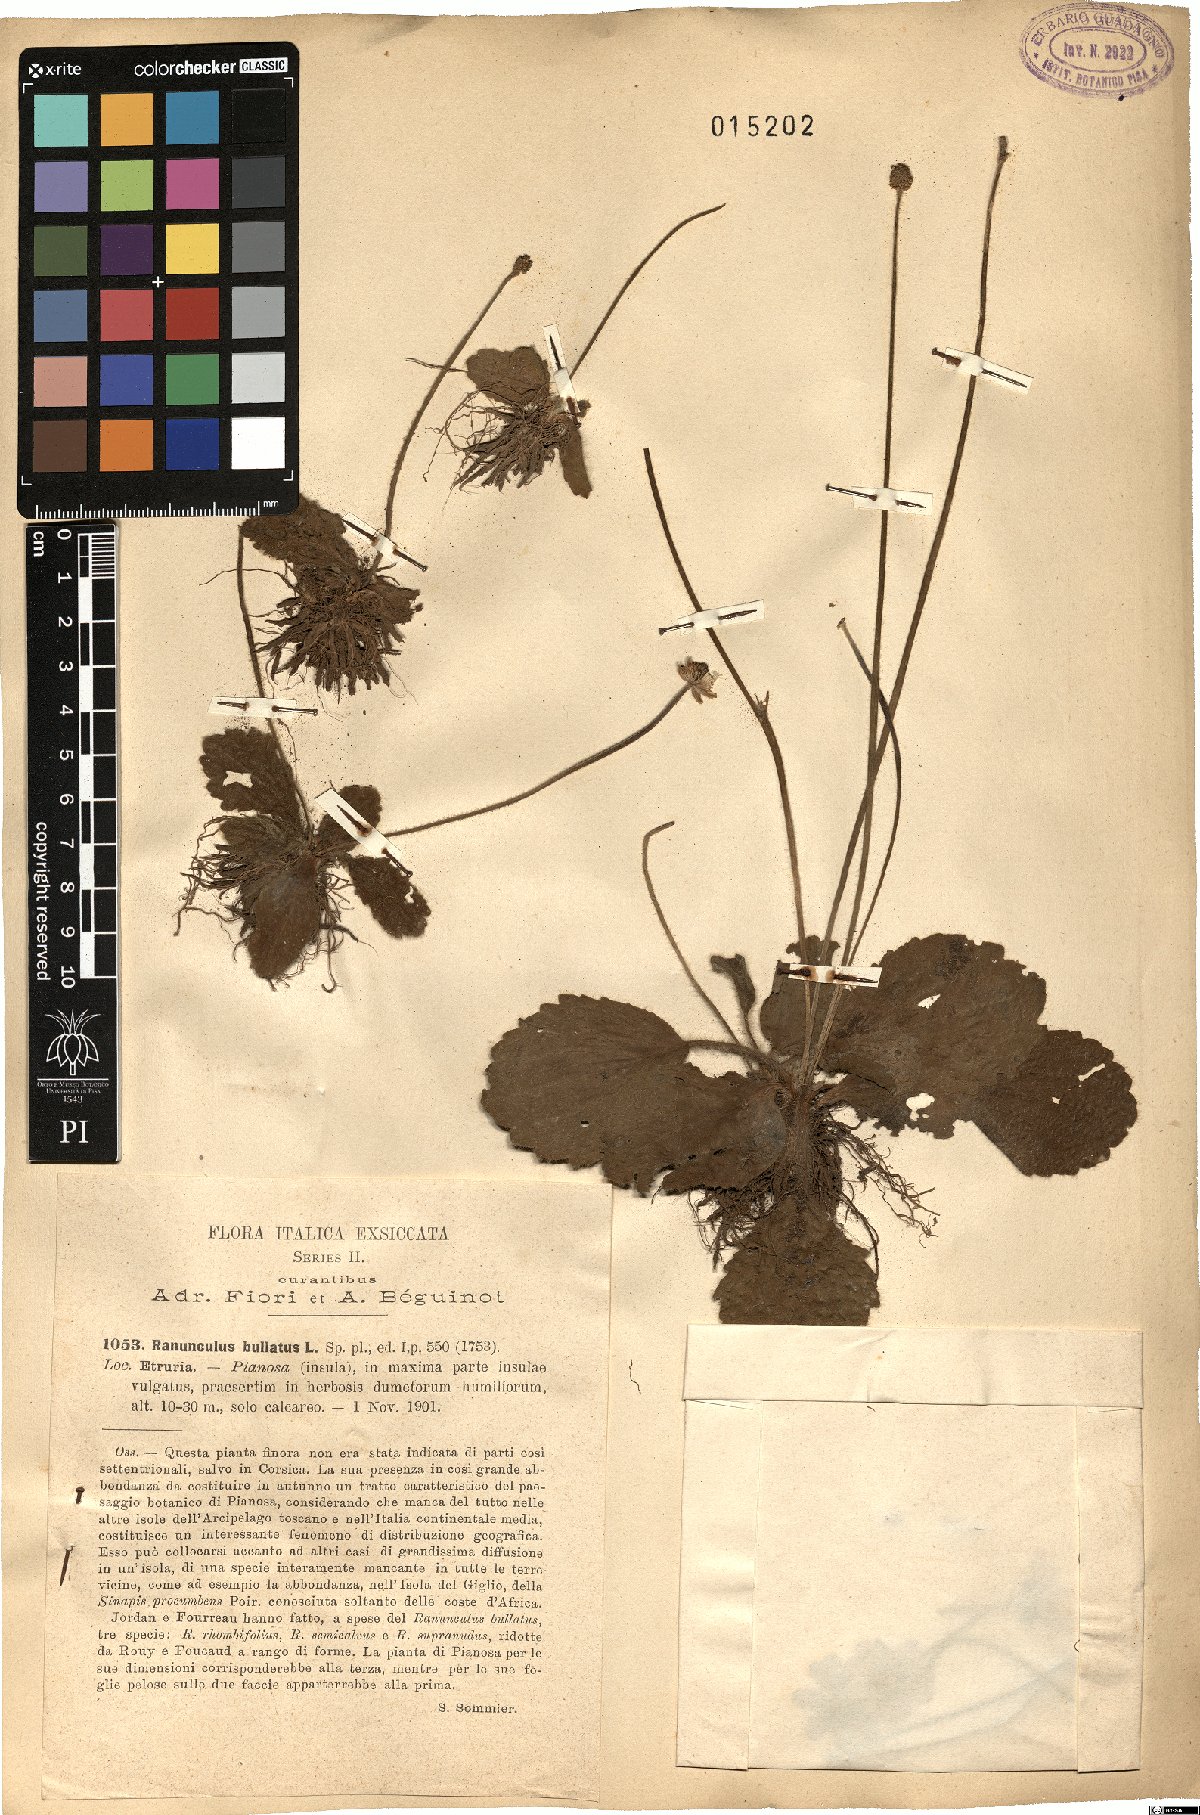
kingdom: Plantae
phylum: Tracheophyta
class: Magnoliopsida
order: Ranunculales
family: Ranunculaceae
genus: Ranunculus
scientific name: Ranunculus bullatus
